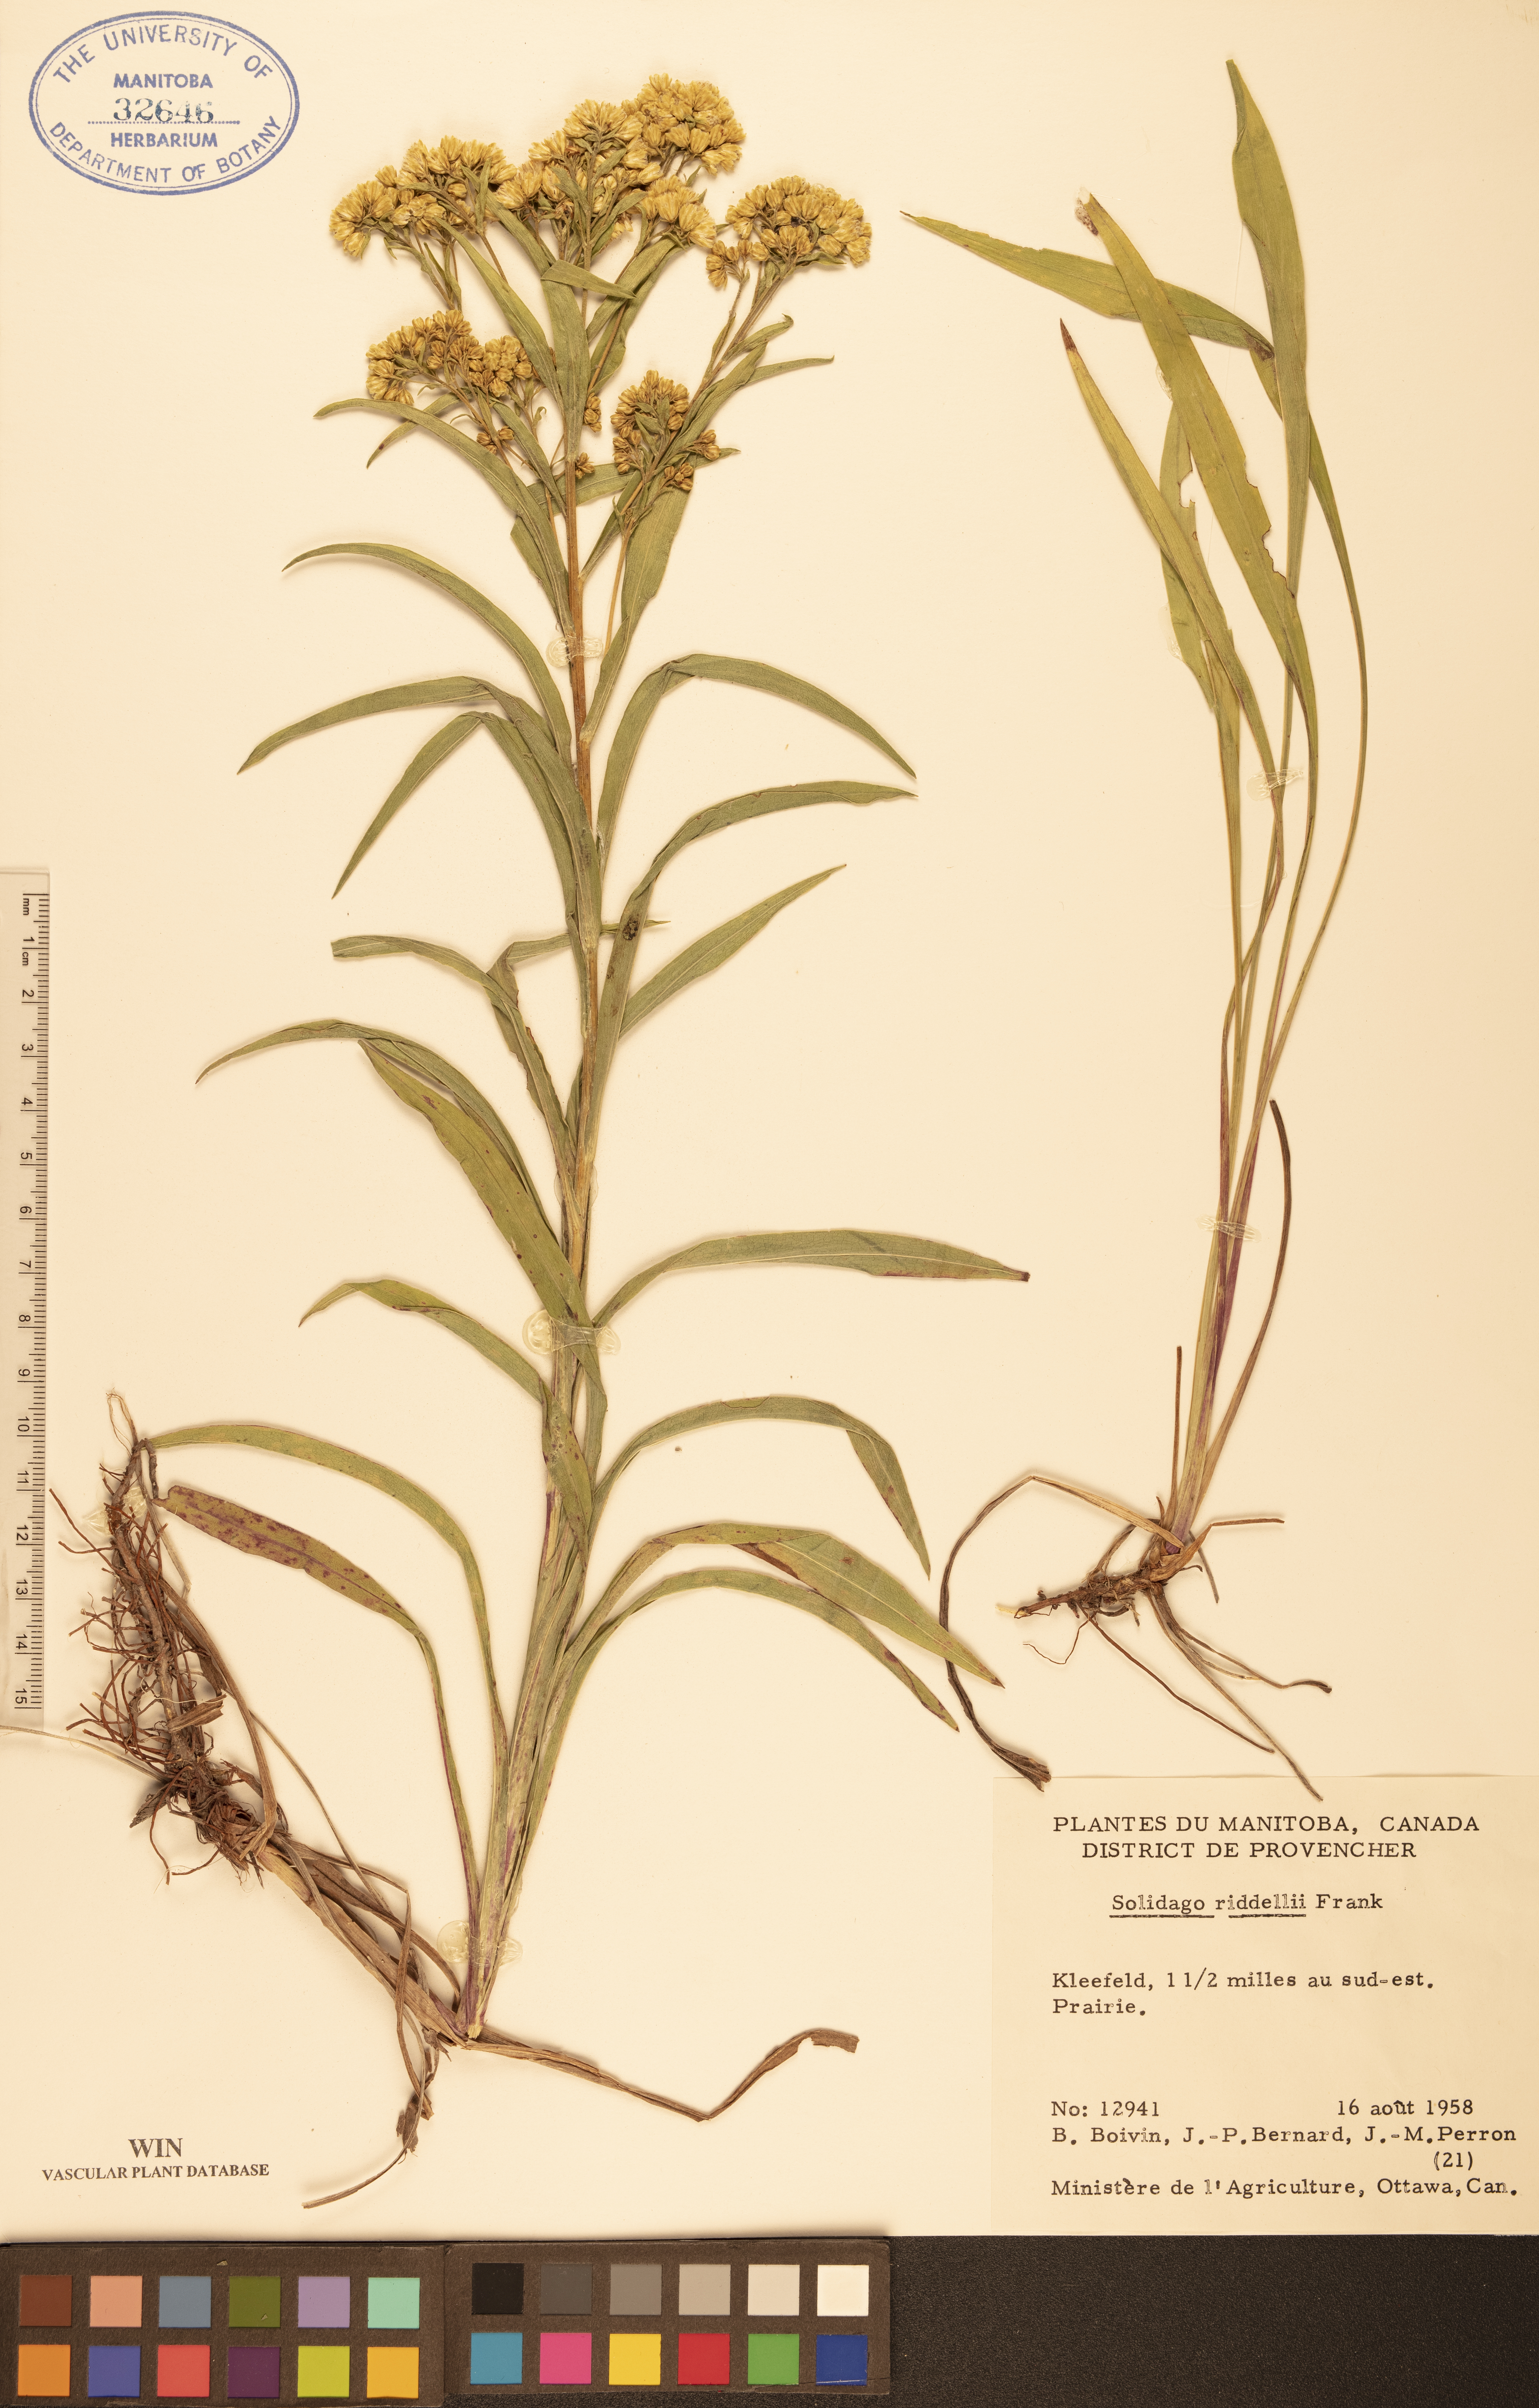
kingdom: Plantae
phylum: Tracheophyta
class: Magnoliopsida
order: Asterales
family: Asteraceae
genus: Solidago
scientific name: Solidago riddellii
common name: Riddell's goldenrod
